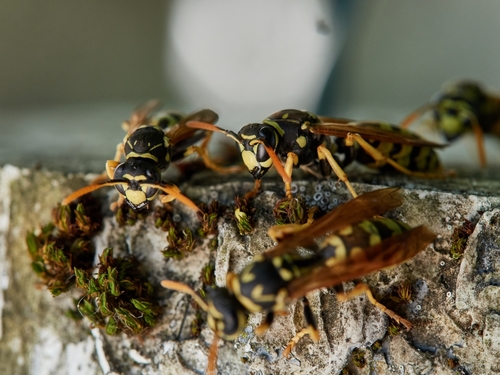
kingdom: Animalia
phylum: Arthropoda
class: Insecta
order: Hymenoptera
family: Eumenidae
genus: Polistes
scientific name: Polistes dominula
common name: Paper wasp
